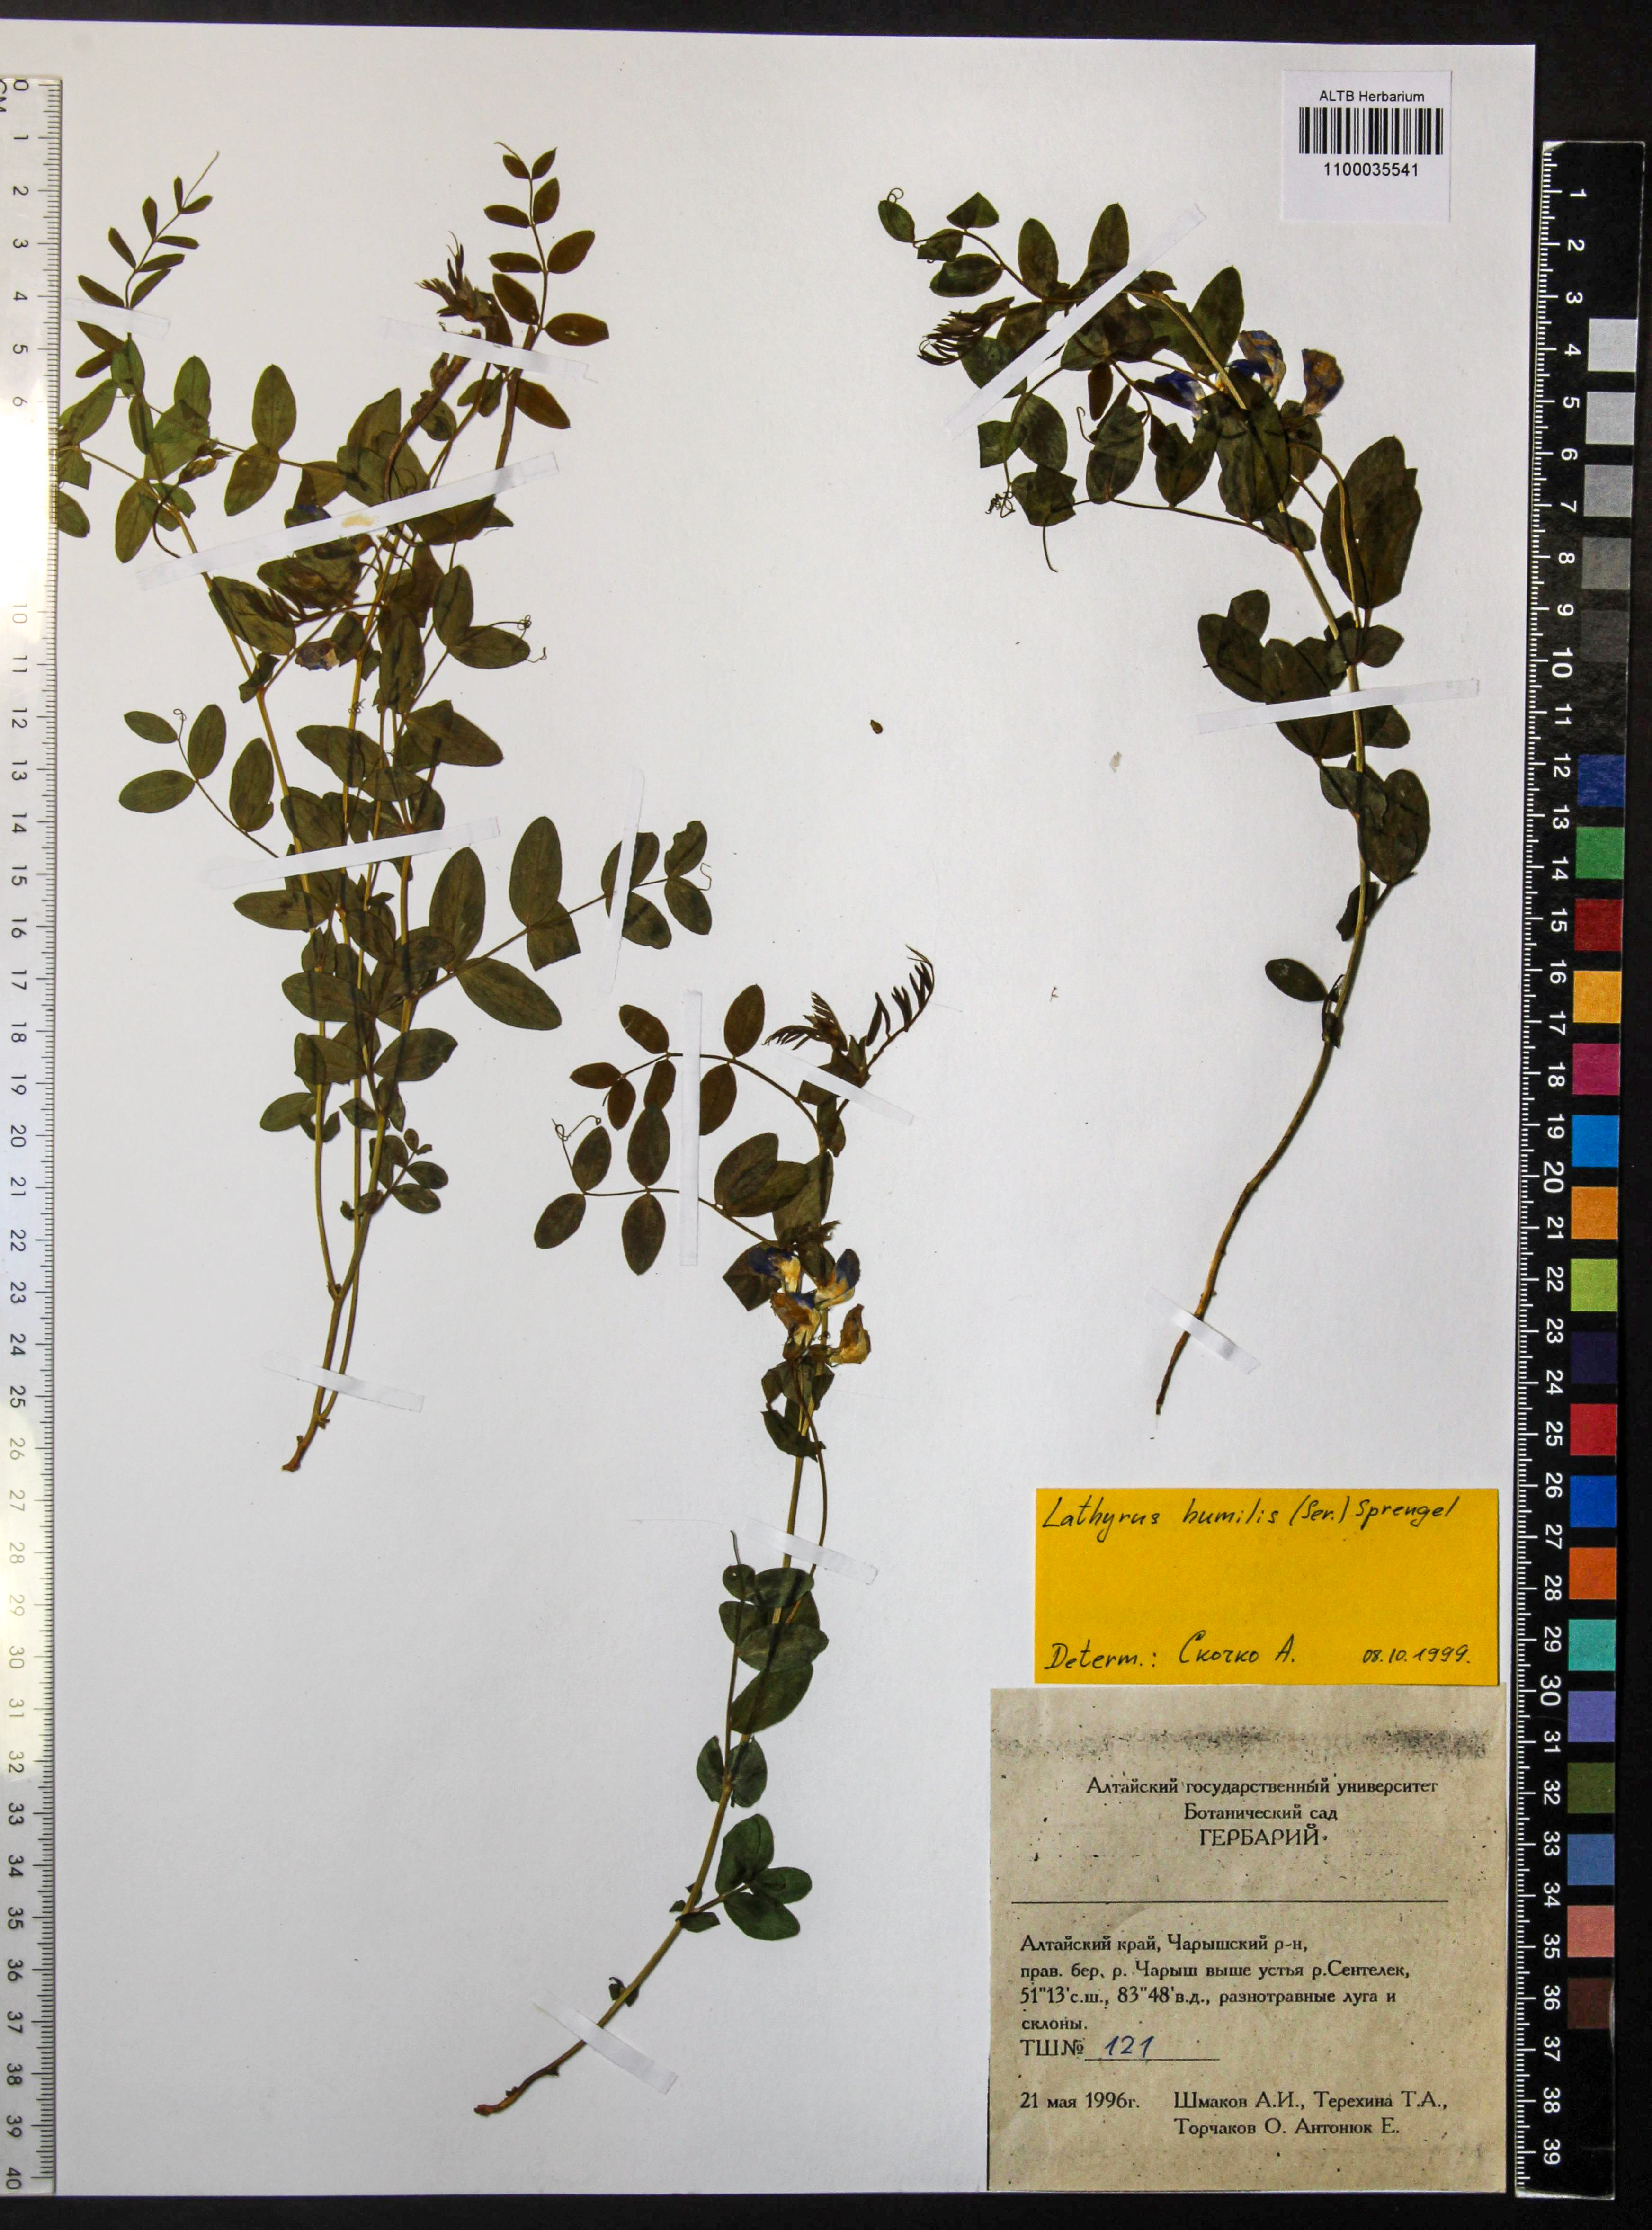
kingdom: Plantae
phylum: Tracheophyta
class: Magnoliopsida
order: Fabales
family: Fabaceae
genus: Lathyrus
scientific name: Lathyrus humilis
